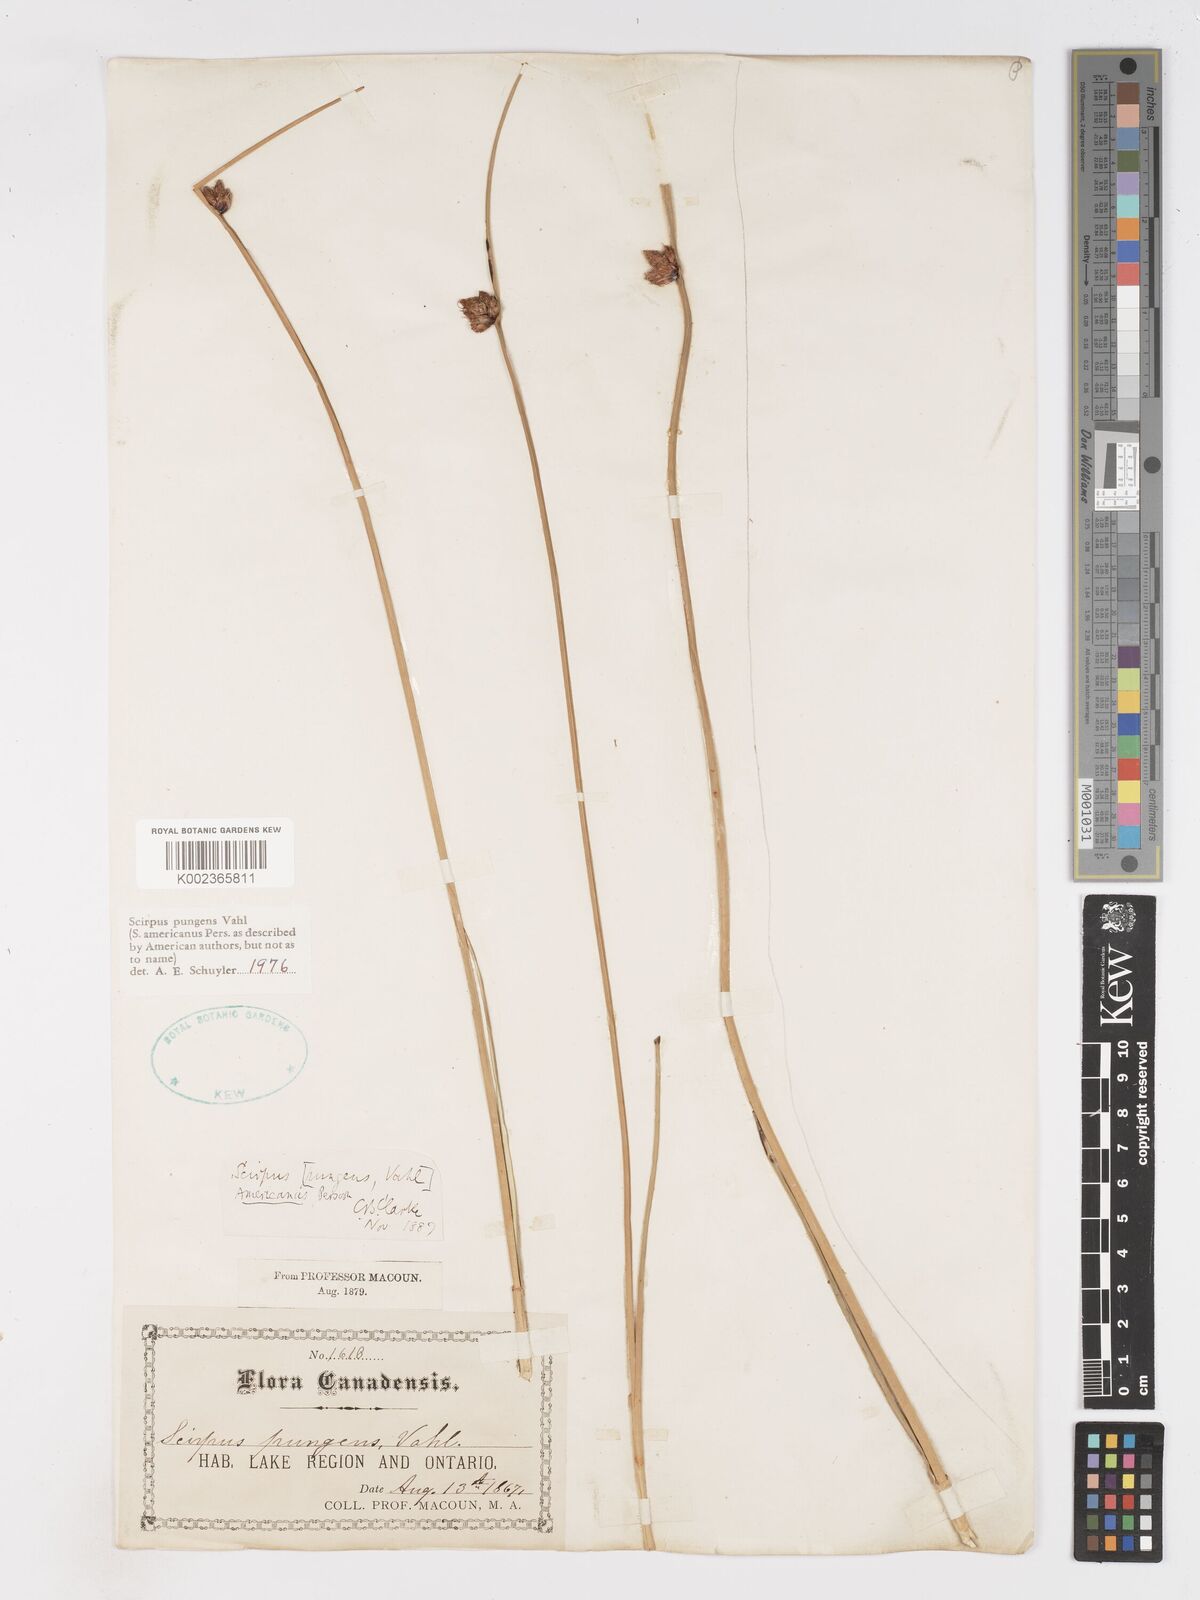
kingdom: Plantae
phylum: Tracheophyta
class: Liliopsida
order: Poales
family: Cyperaceae
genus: Schoenoplectus
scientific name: Schoenoplectus pungens
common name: Sharp club-rush
